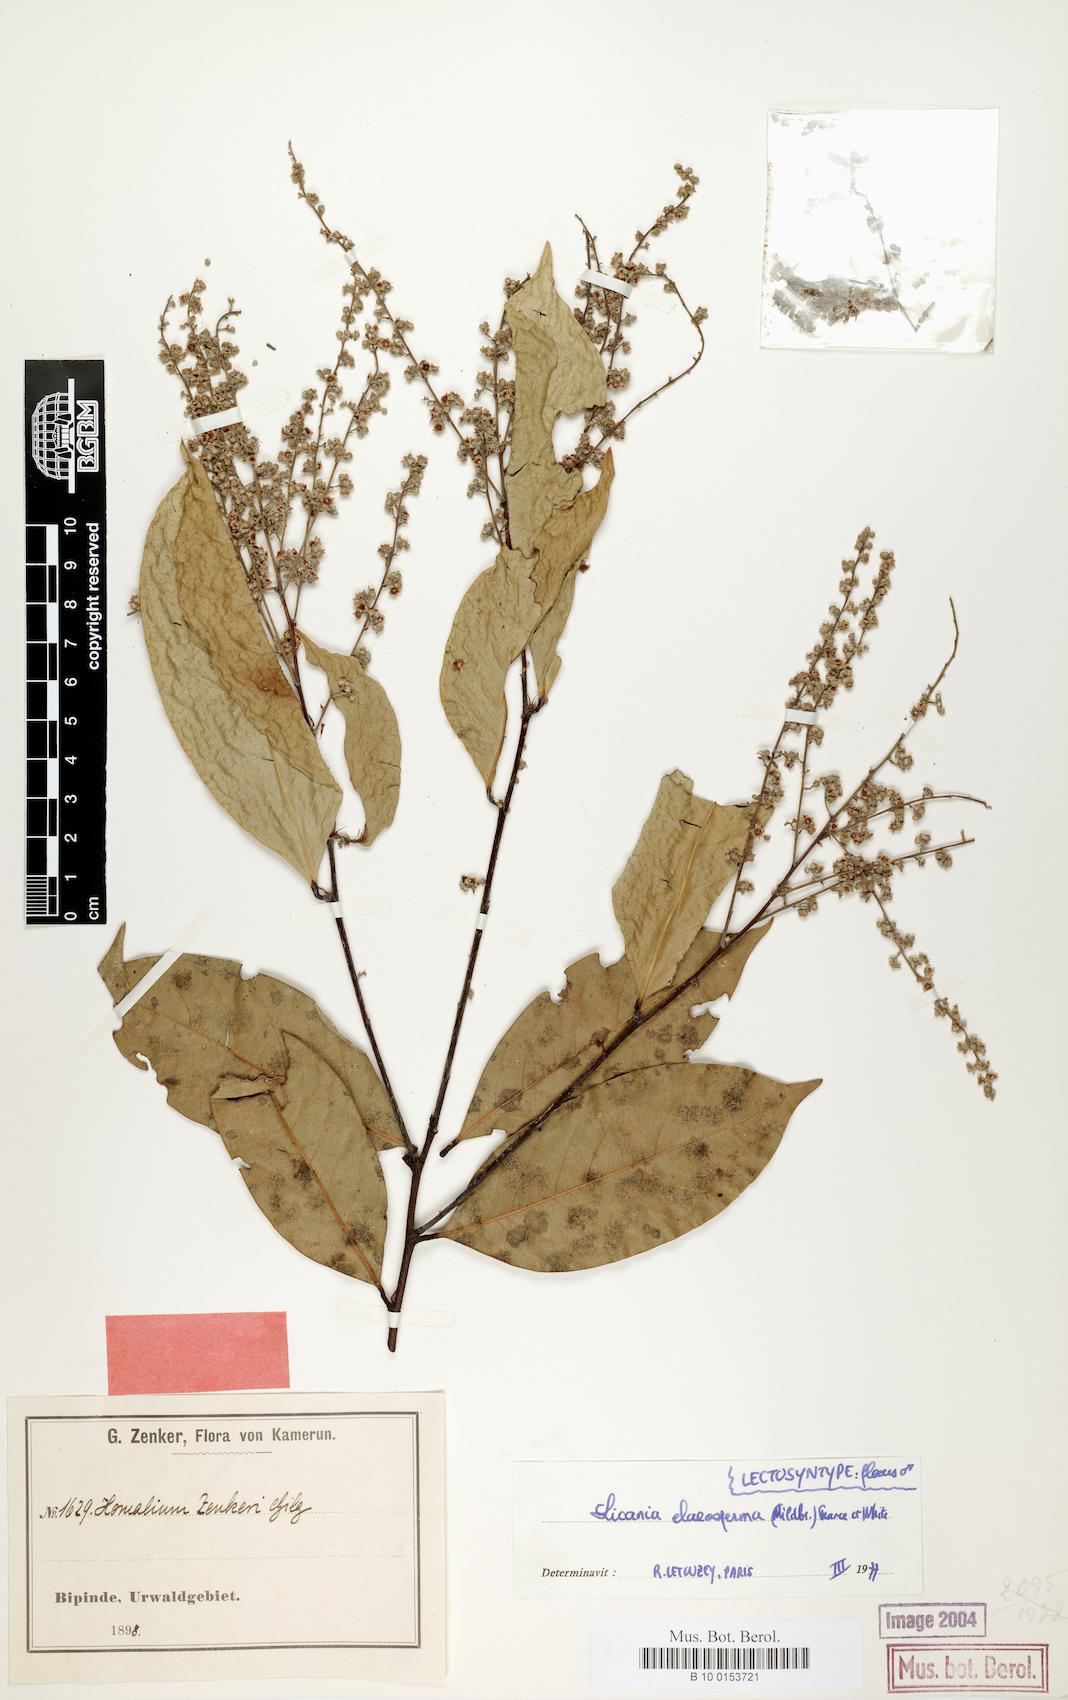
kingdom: Plantae
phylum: Tracheophyta
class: Magnoliopsida
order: Malpighiales
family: Chrysobalanaceae
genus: Afrolicania
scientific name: Afrolicania elaeosperma
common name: Nikko
